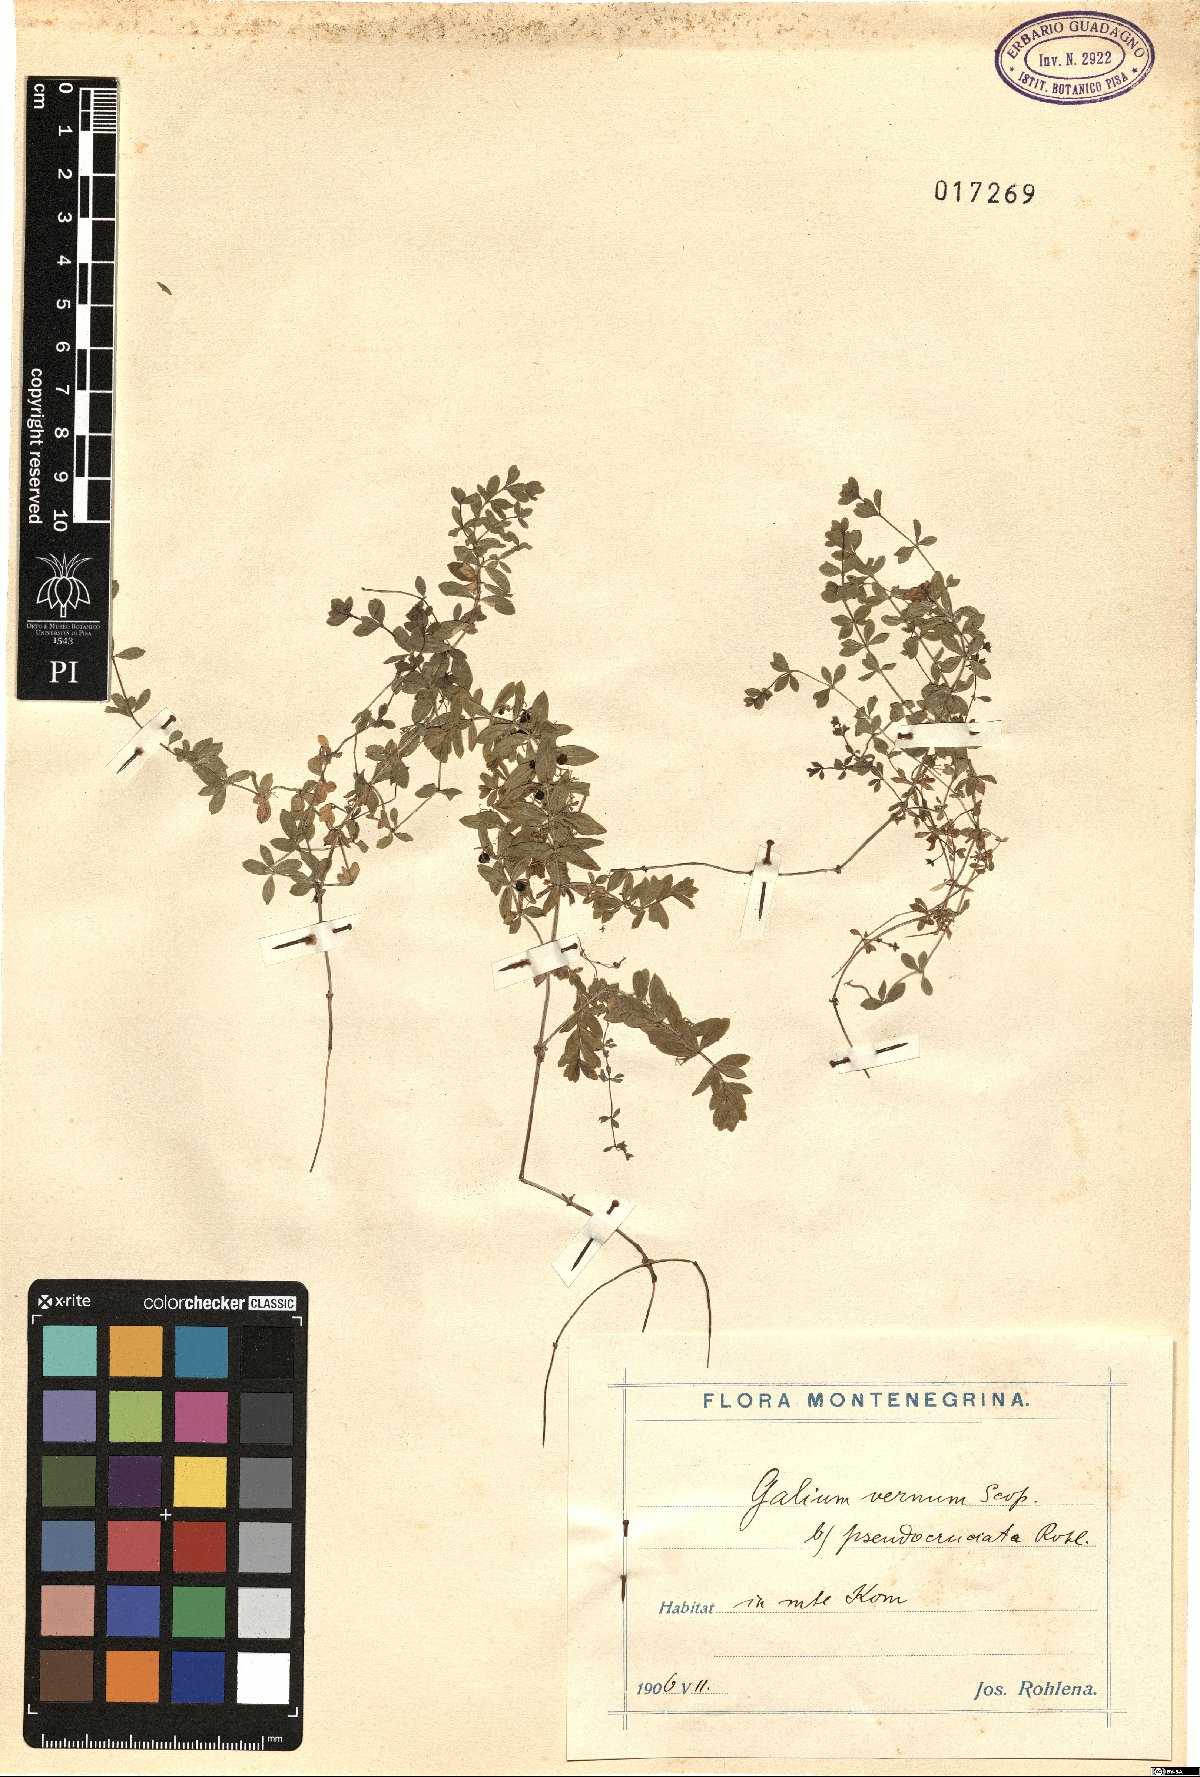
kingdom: Plantae
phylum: Tracheophyta
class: Magnoliopsida
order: Gentianales
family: Rubiaceae
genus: Cruciata
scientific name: Cruciata glabra
